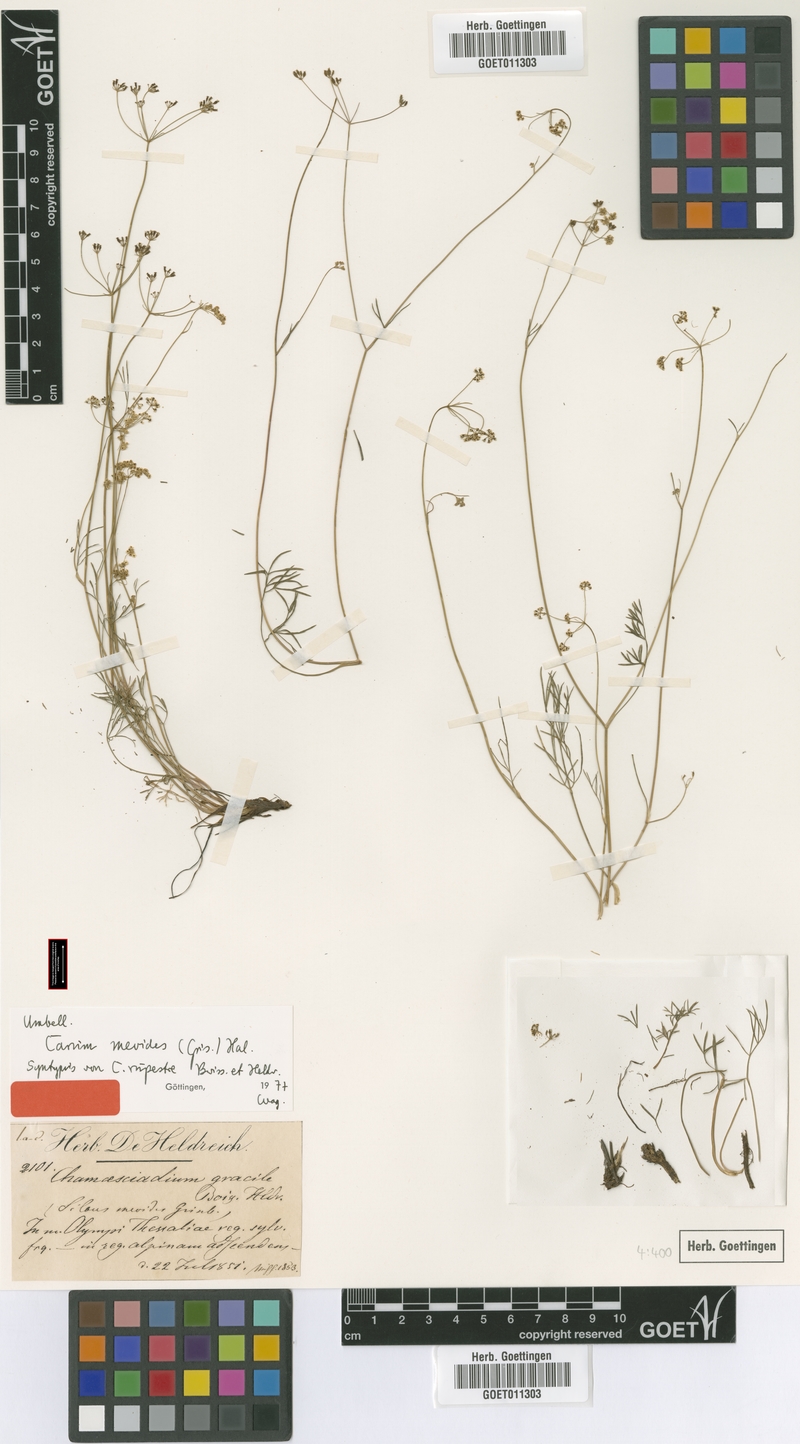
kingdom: Plantae
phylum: Tracheophyta
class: Magnoliopsida
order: Apiales
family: Apiaceae
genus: Carum
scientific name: Carum meoides
